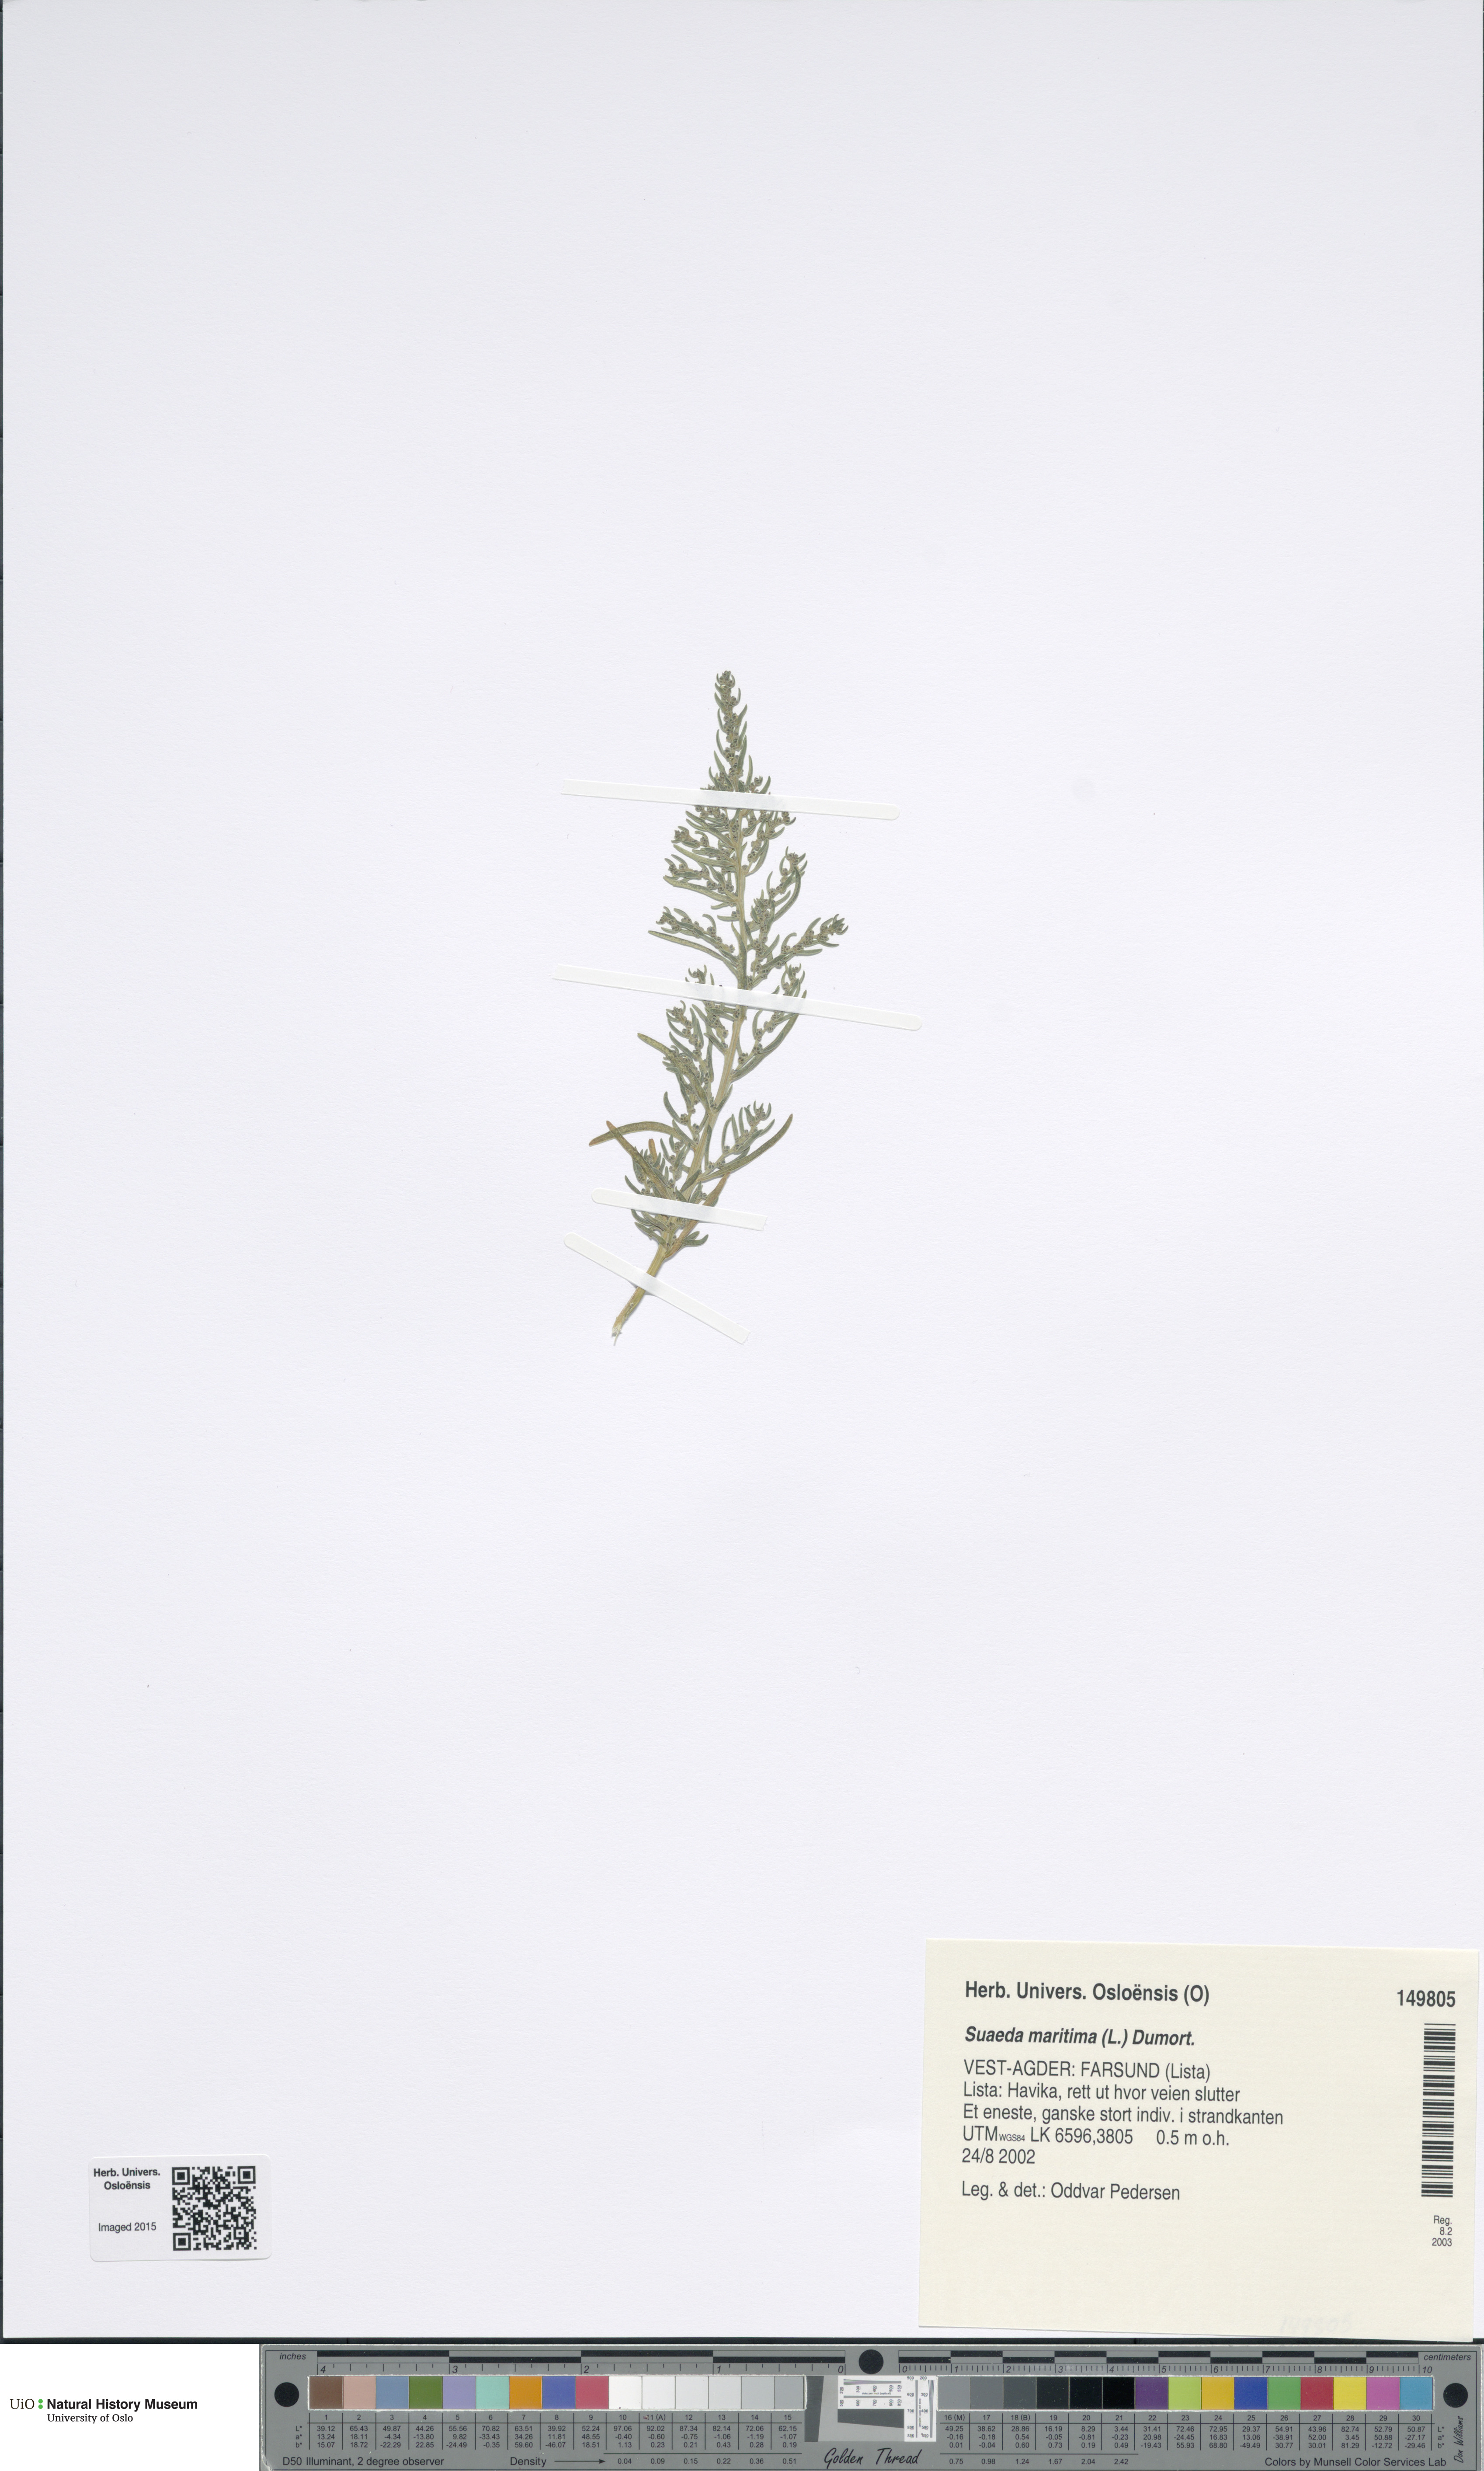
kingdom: Plantae
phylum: Tracheophyta
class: Magnoliopsida
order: Caryophyllales
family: Amaranthaceae
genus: Suaeda
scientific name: Suaeda maritima
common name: Annual sea-blite
